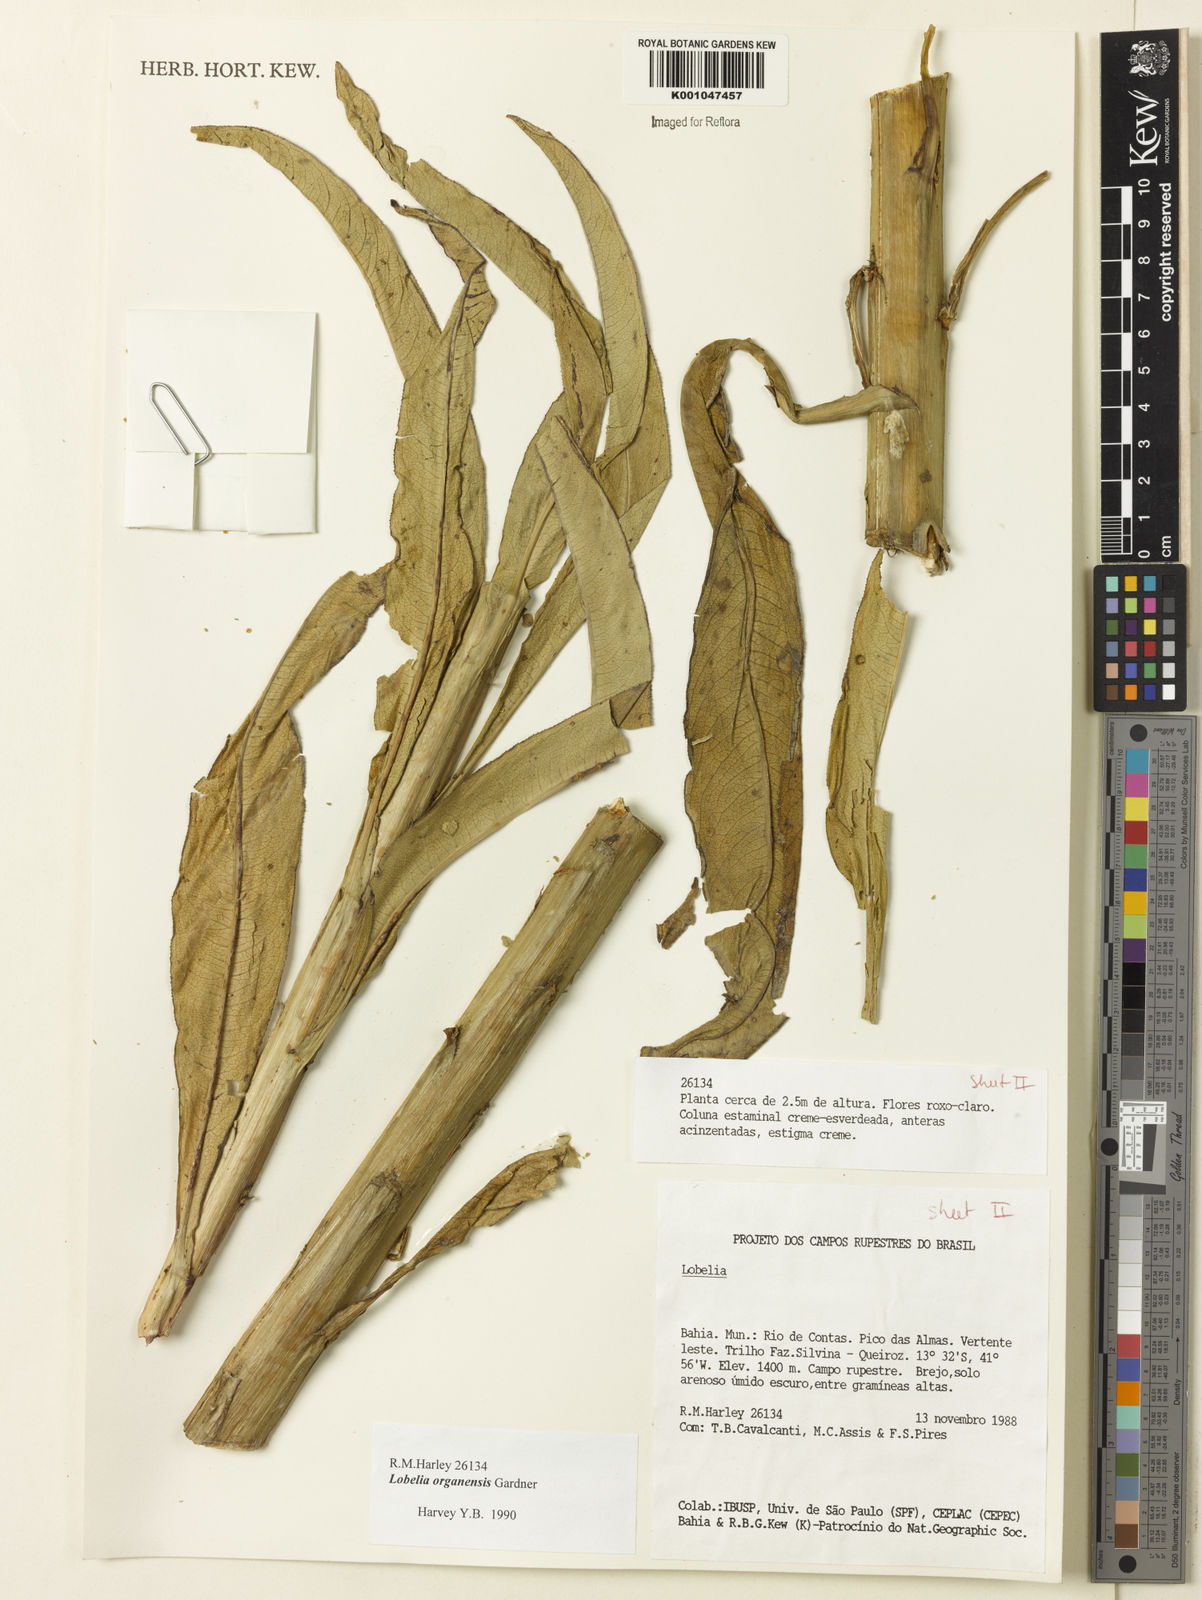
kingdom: Plantae
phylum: Tracheophyta
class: Magnoliopsida
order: Asterales
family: Campanulaceae
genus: Lobelia
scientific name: Lobelia organensis
